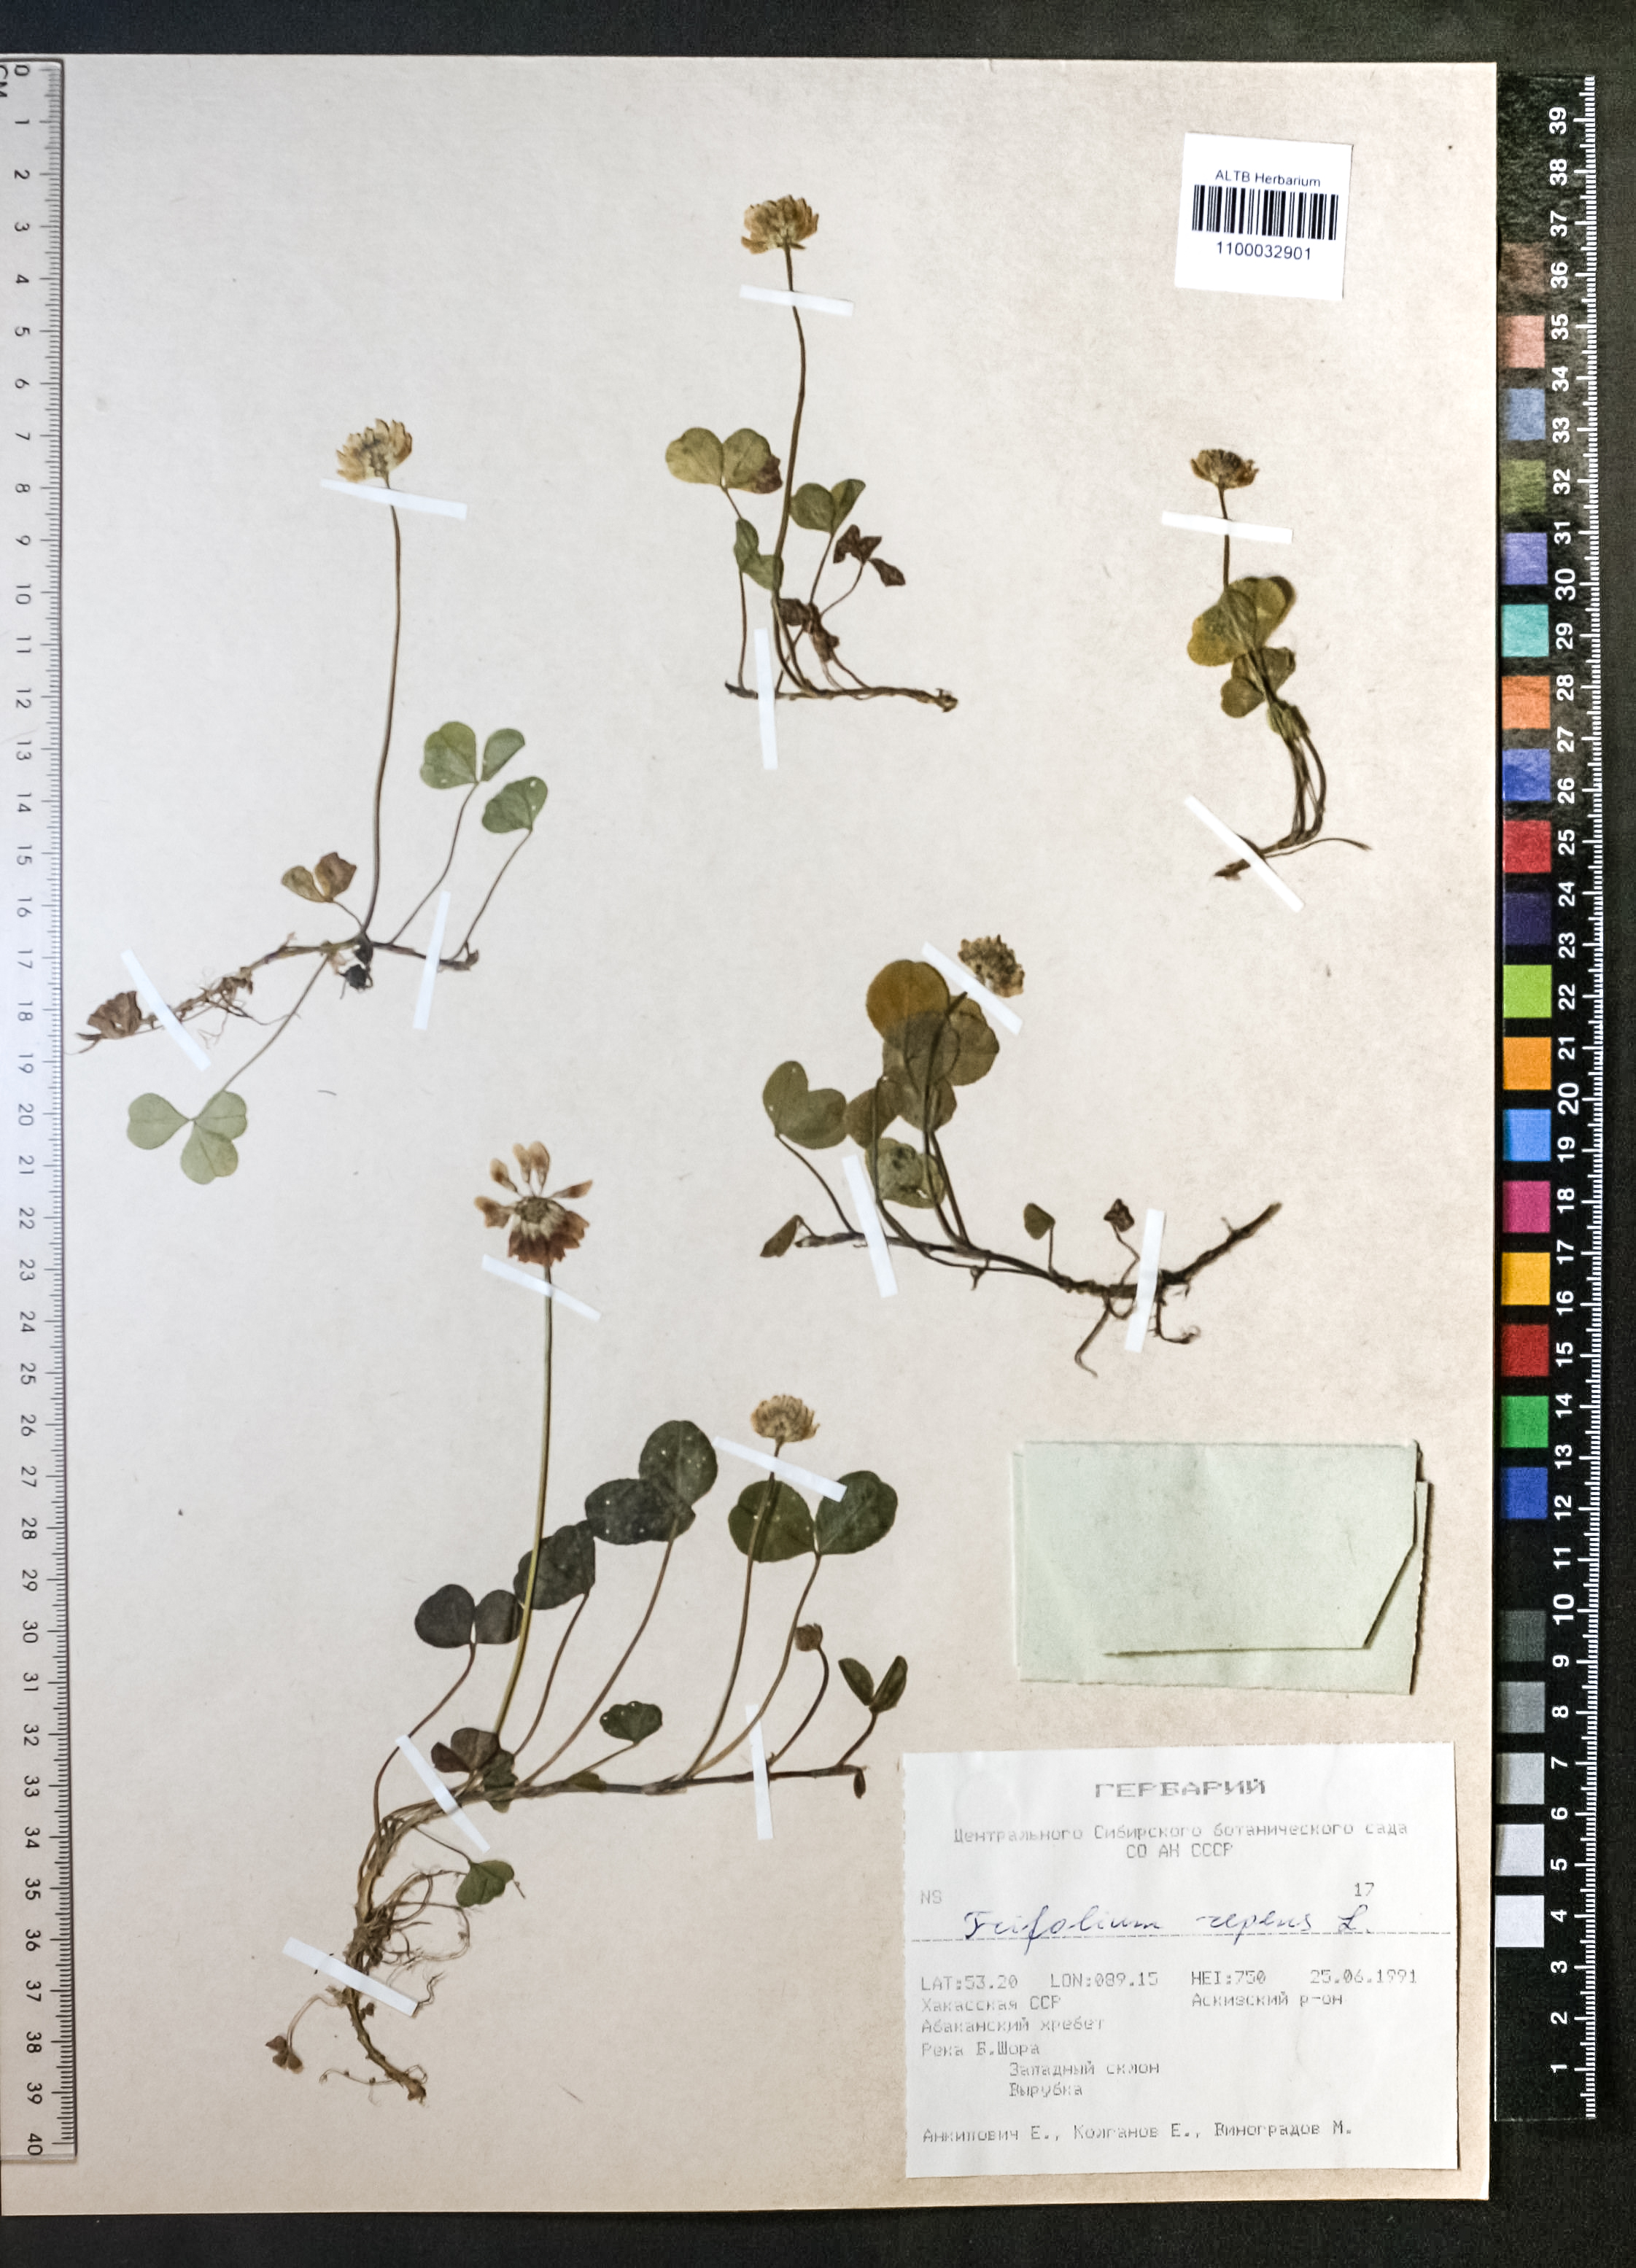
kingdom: Plantae
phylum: Tracheophyta
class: Magnoliopsida
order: Fabales
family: Fabaceae
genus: Trifolium
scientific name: Trifolium repens
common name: White clover
